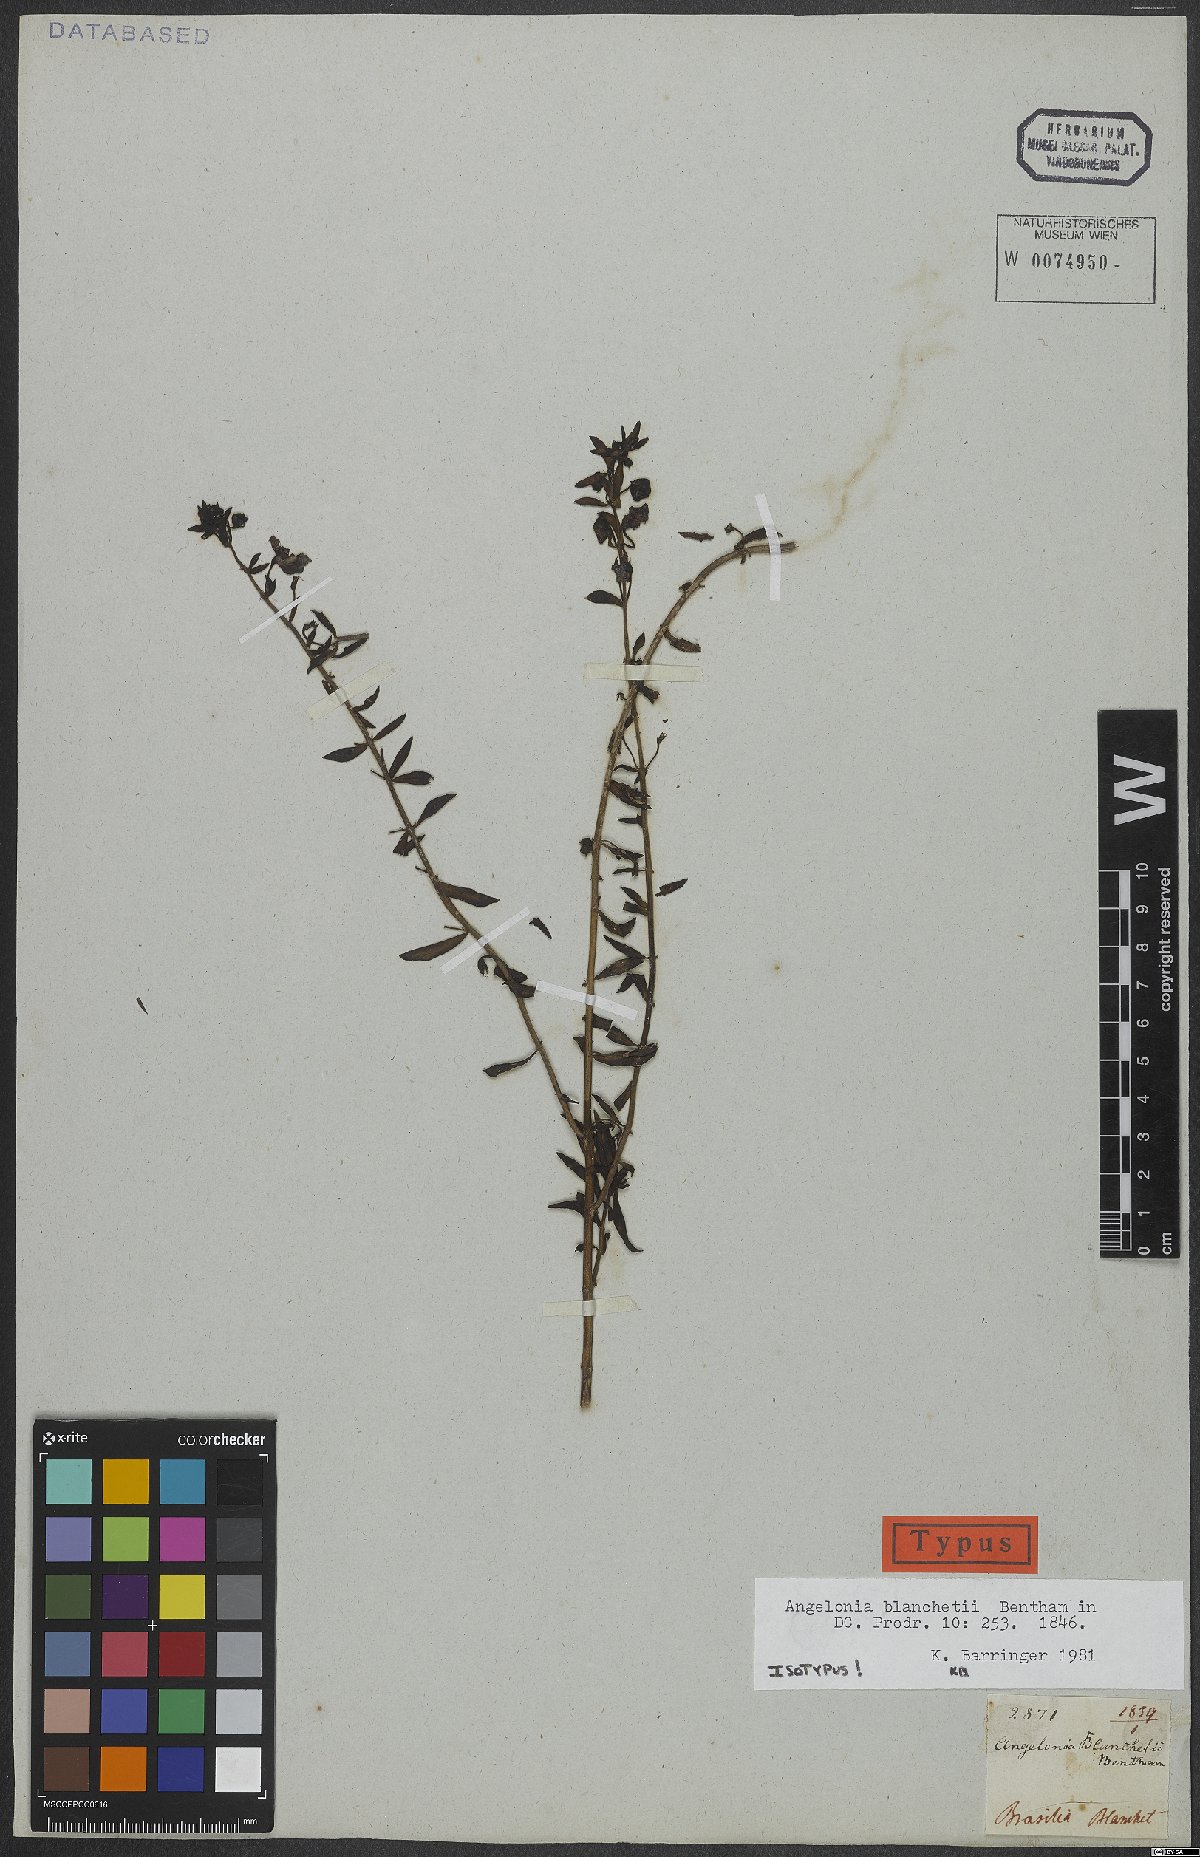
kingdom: Plantae
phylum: Tracheophyta
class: Magnoliopsida
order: Lamiales
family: Plantaginaceae
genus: Angelonia
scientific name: Angelonia blanchetii
